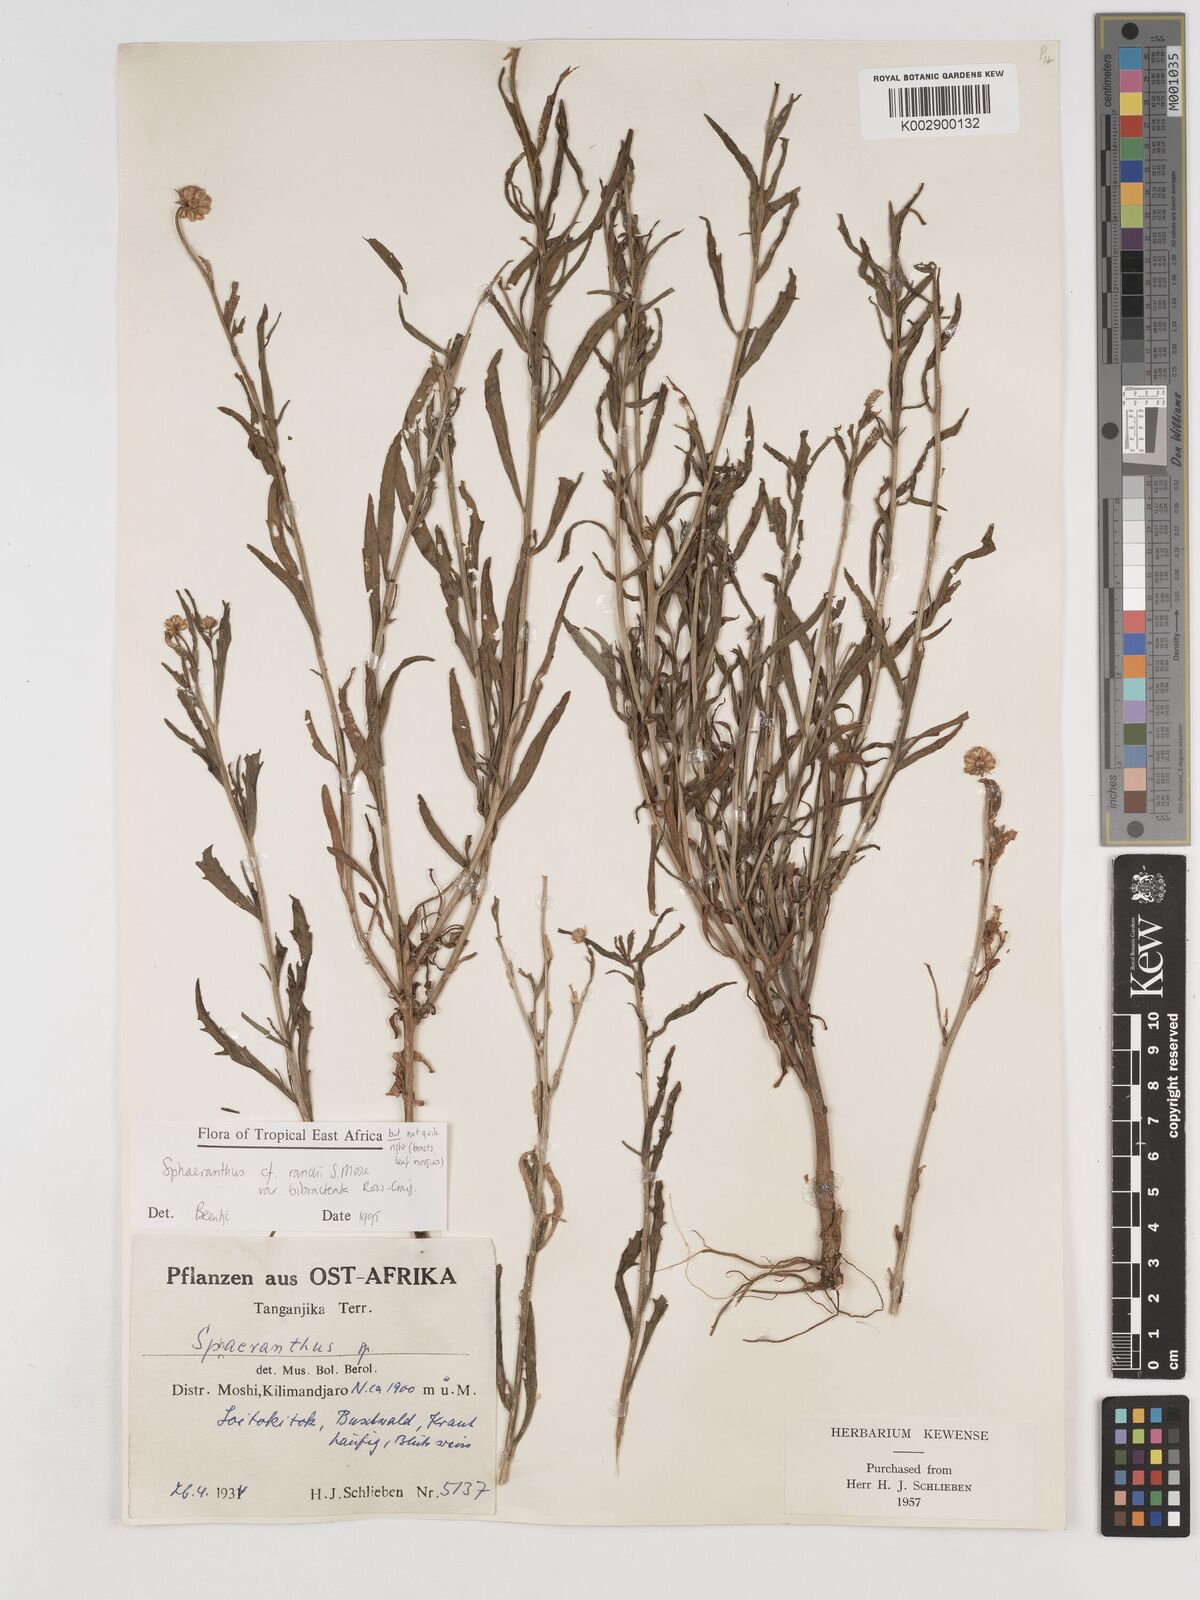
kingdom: Plantae
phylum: Tracheophyta
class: Magnoliopsida
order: Asterales
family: Asteraceae
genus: Sphaeranthus
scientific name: Sphaeranthus randii
